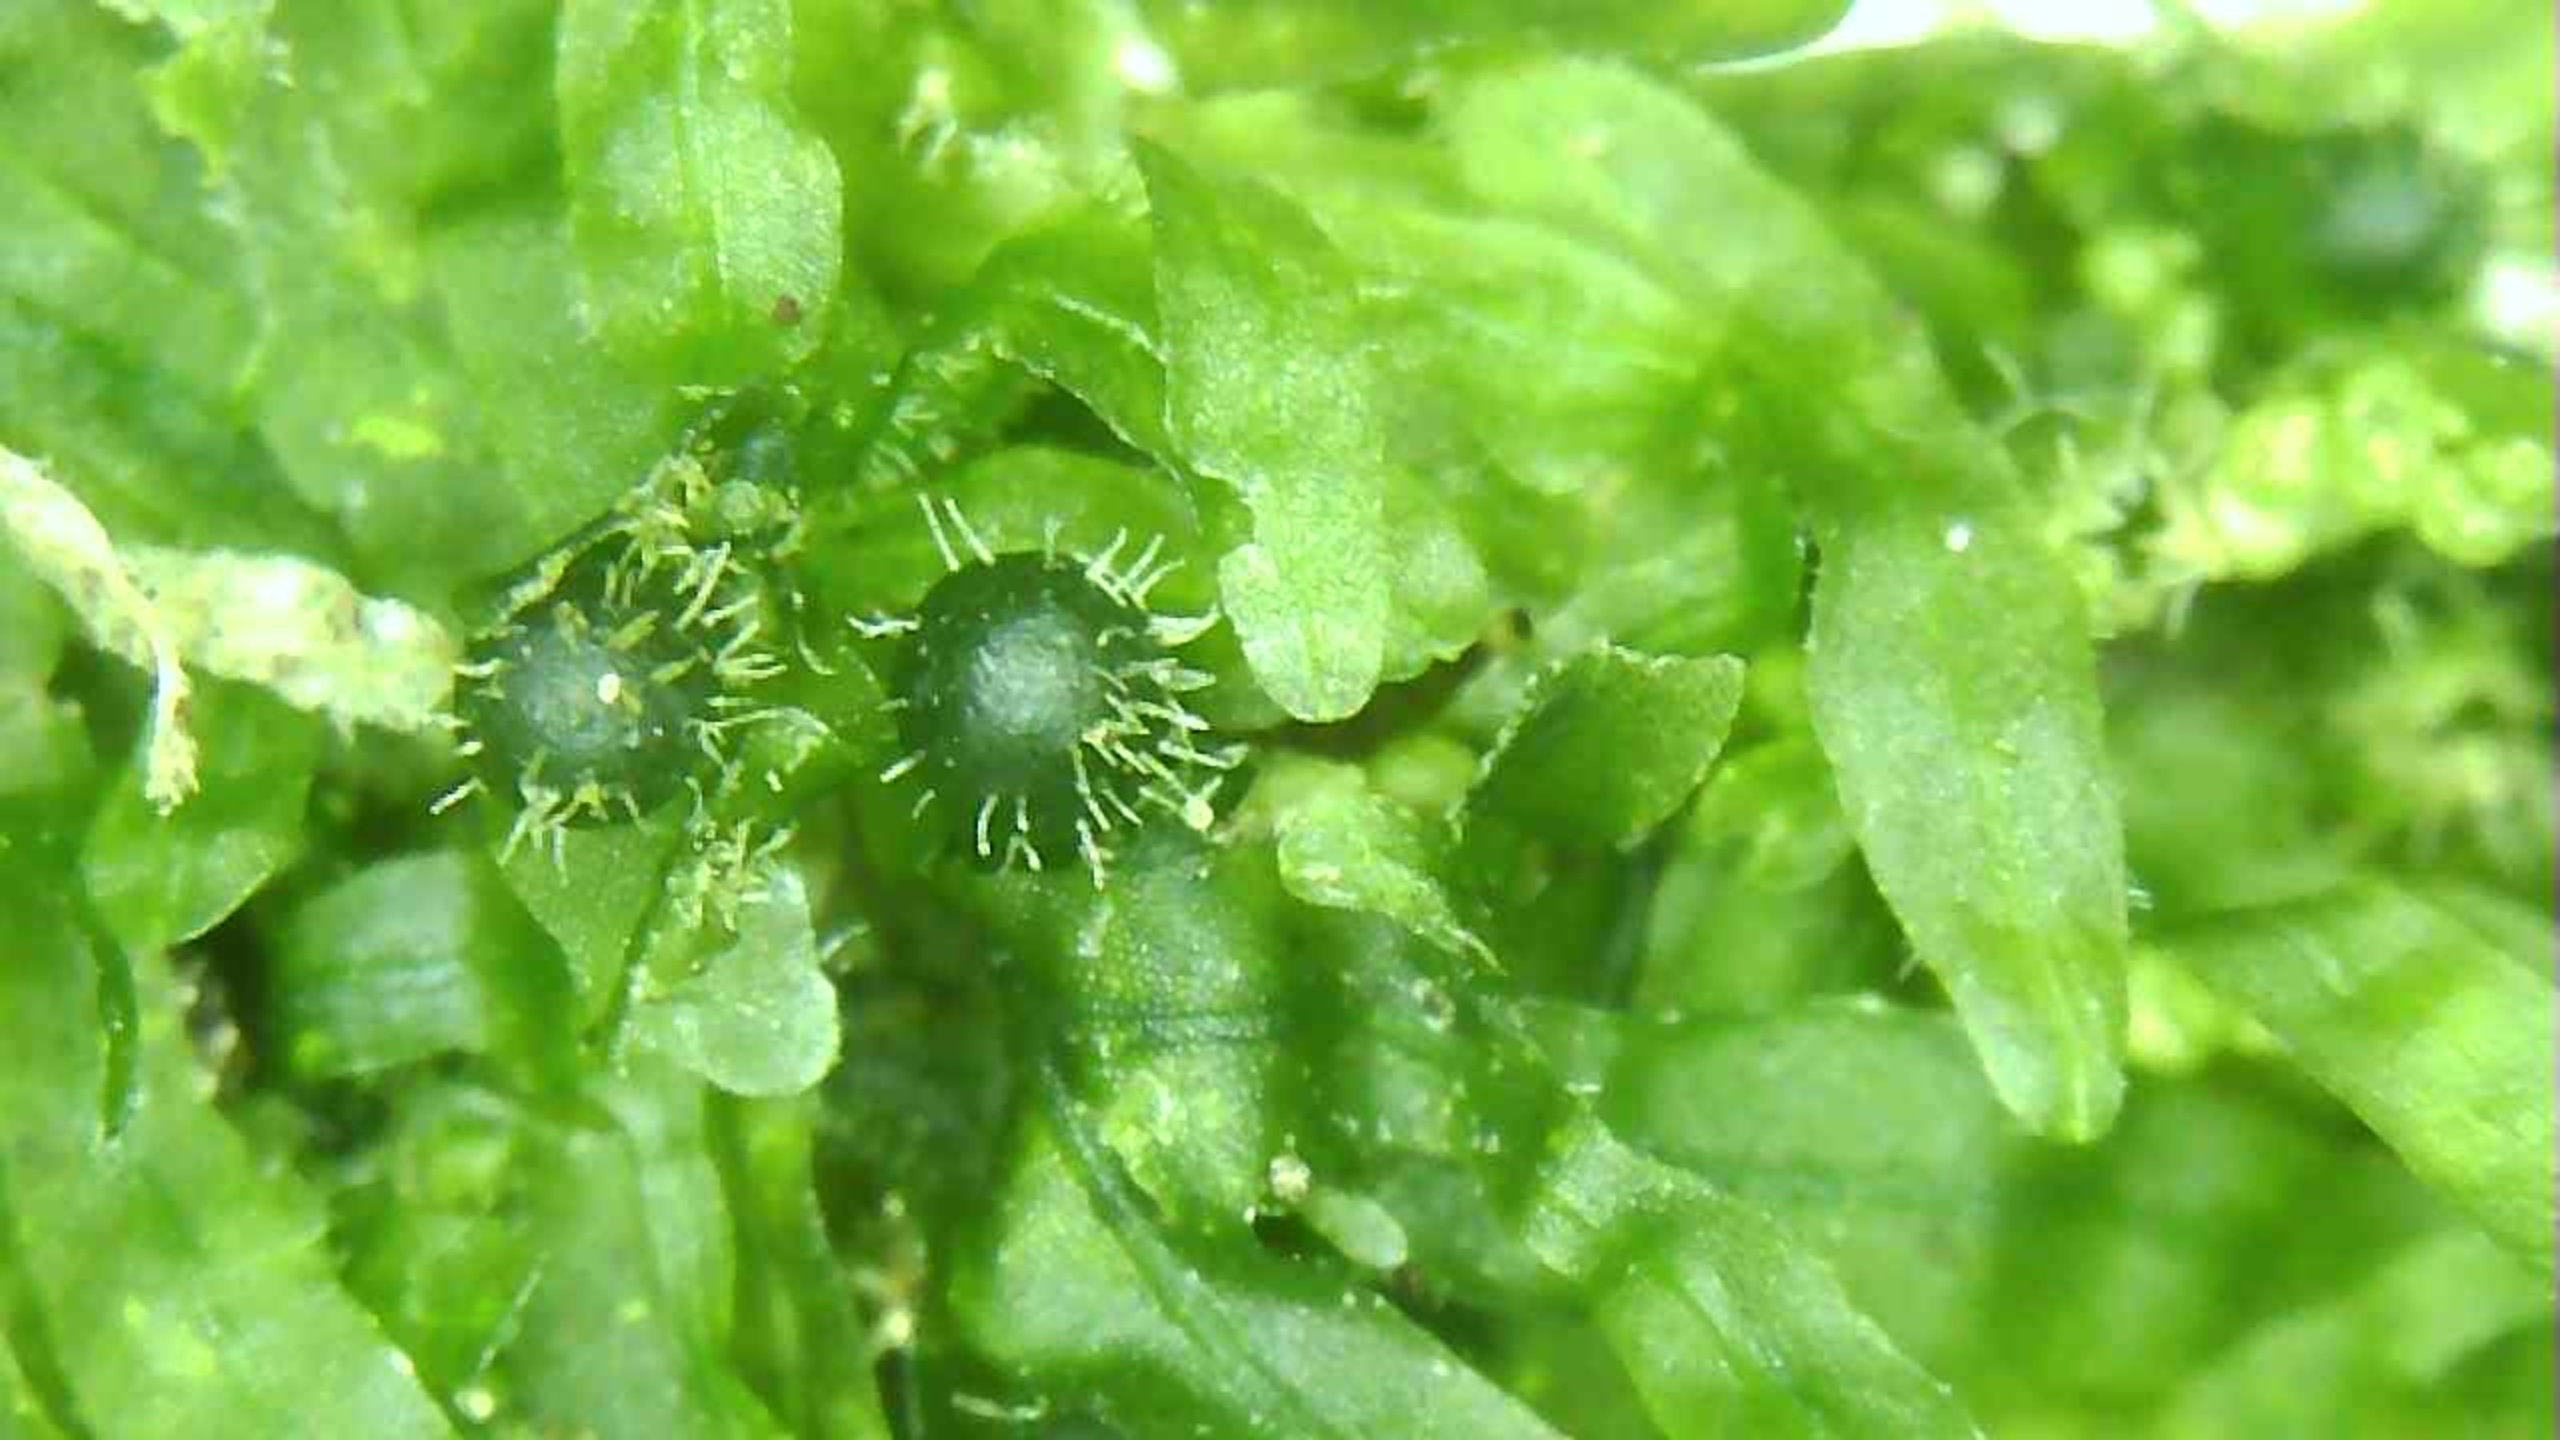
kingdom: Plantae
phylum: Marchantiophyta
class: Jungermanniopsida
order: Metzgeriales
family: Metzgeriaceae
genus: Metzgeria
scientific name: Metzgeria furcata
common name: Almindelig gaffelløv
